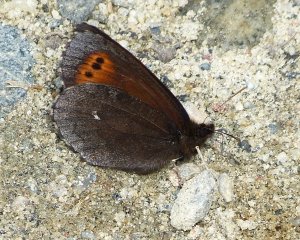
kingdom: Animalia
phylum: Arthropoda
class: Insecta
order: Lepidoptera
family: Nymphalidae
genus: Erebia
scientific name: Erebia disa
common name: Taiga Alpine
